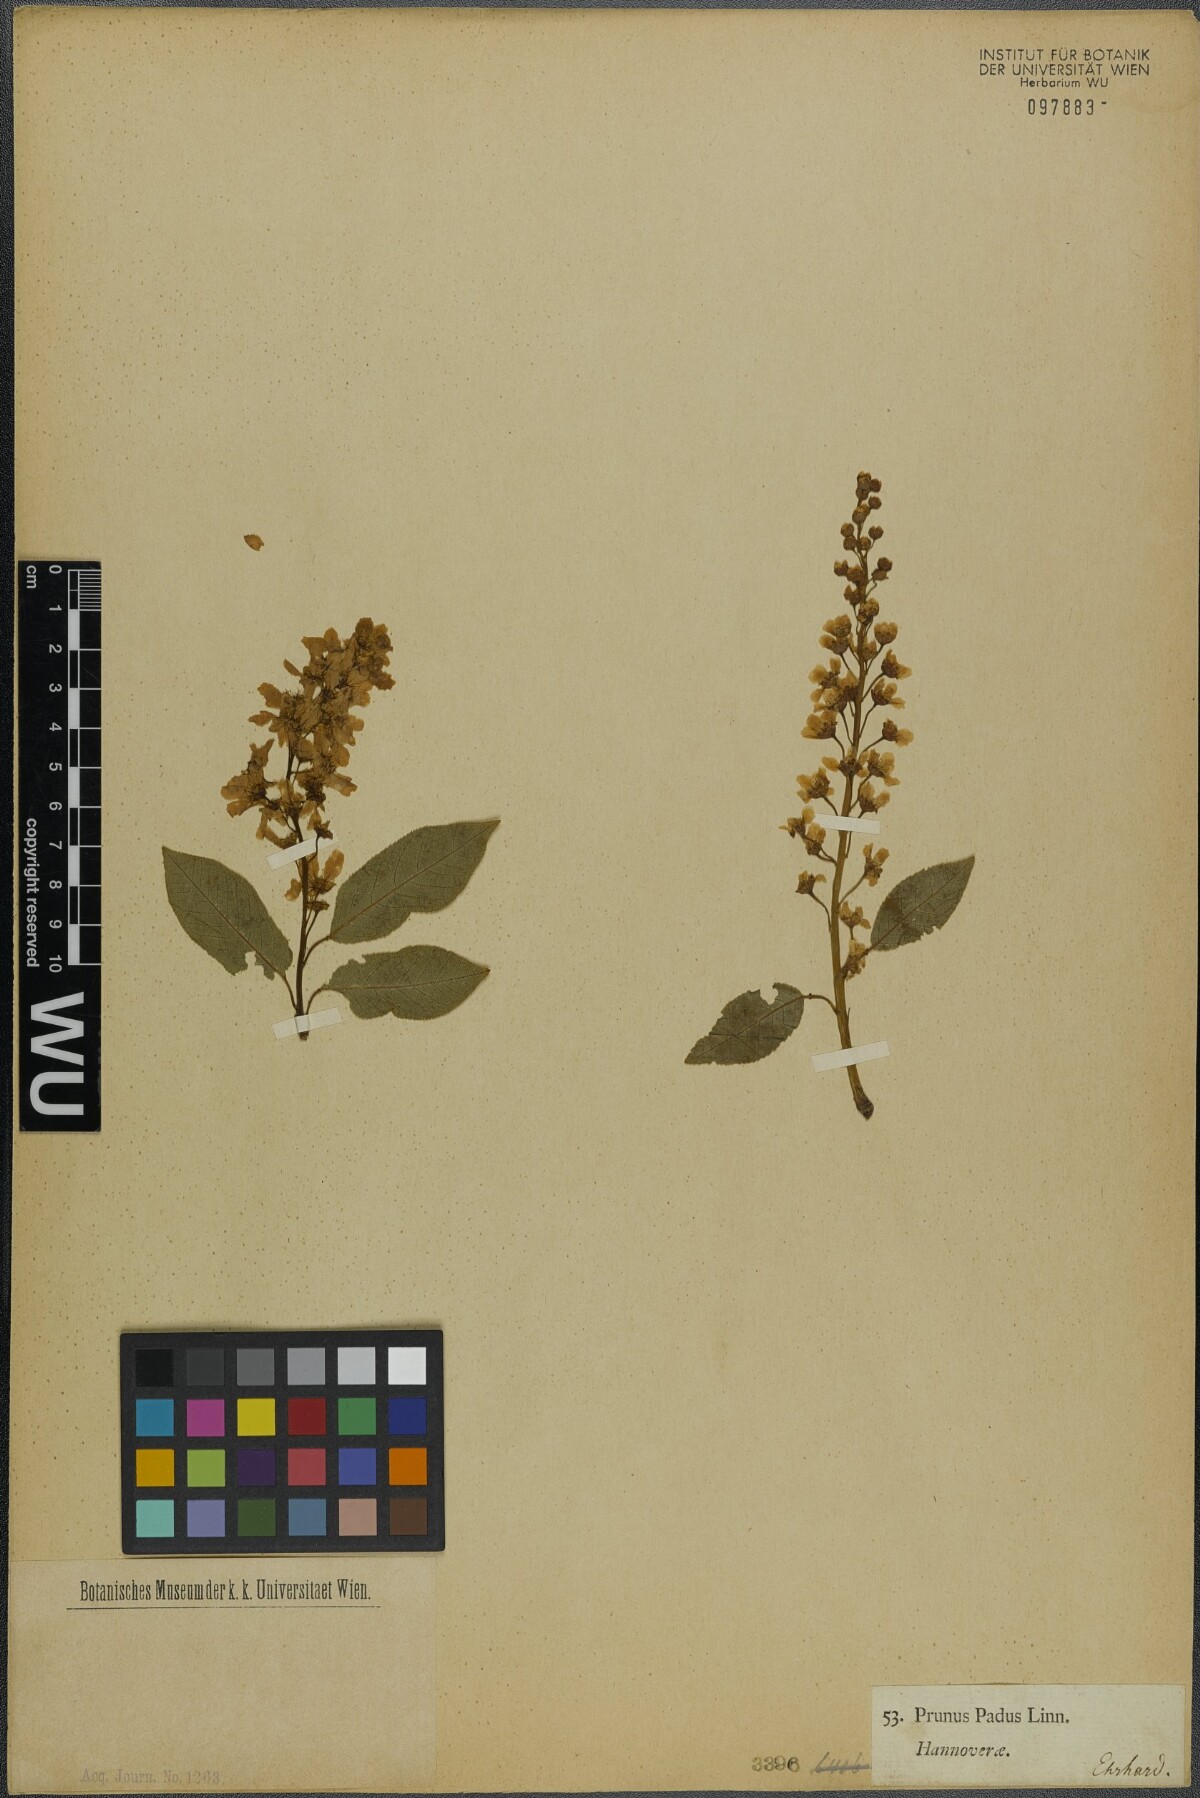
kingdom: Plantae
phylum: Tracheophyta
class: Magnoliopsida
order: Rosales
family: Rosaceae
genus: Prunus
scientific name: Prunus padus
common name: Bird cherry
